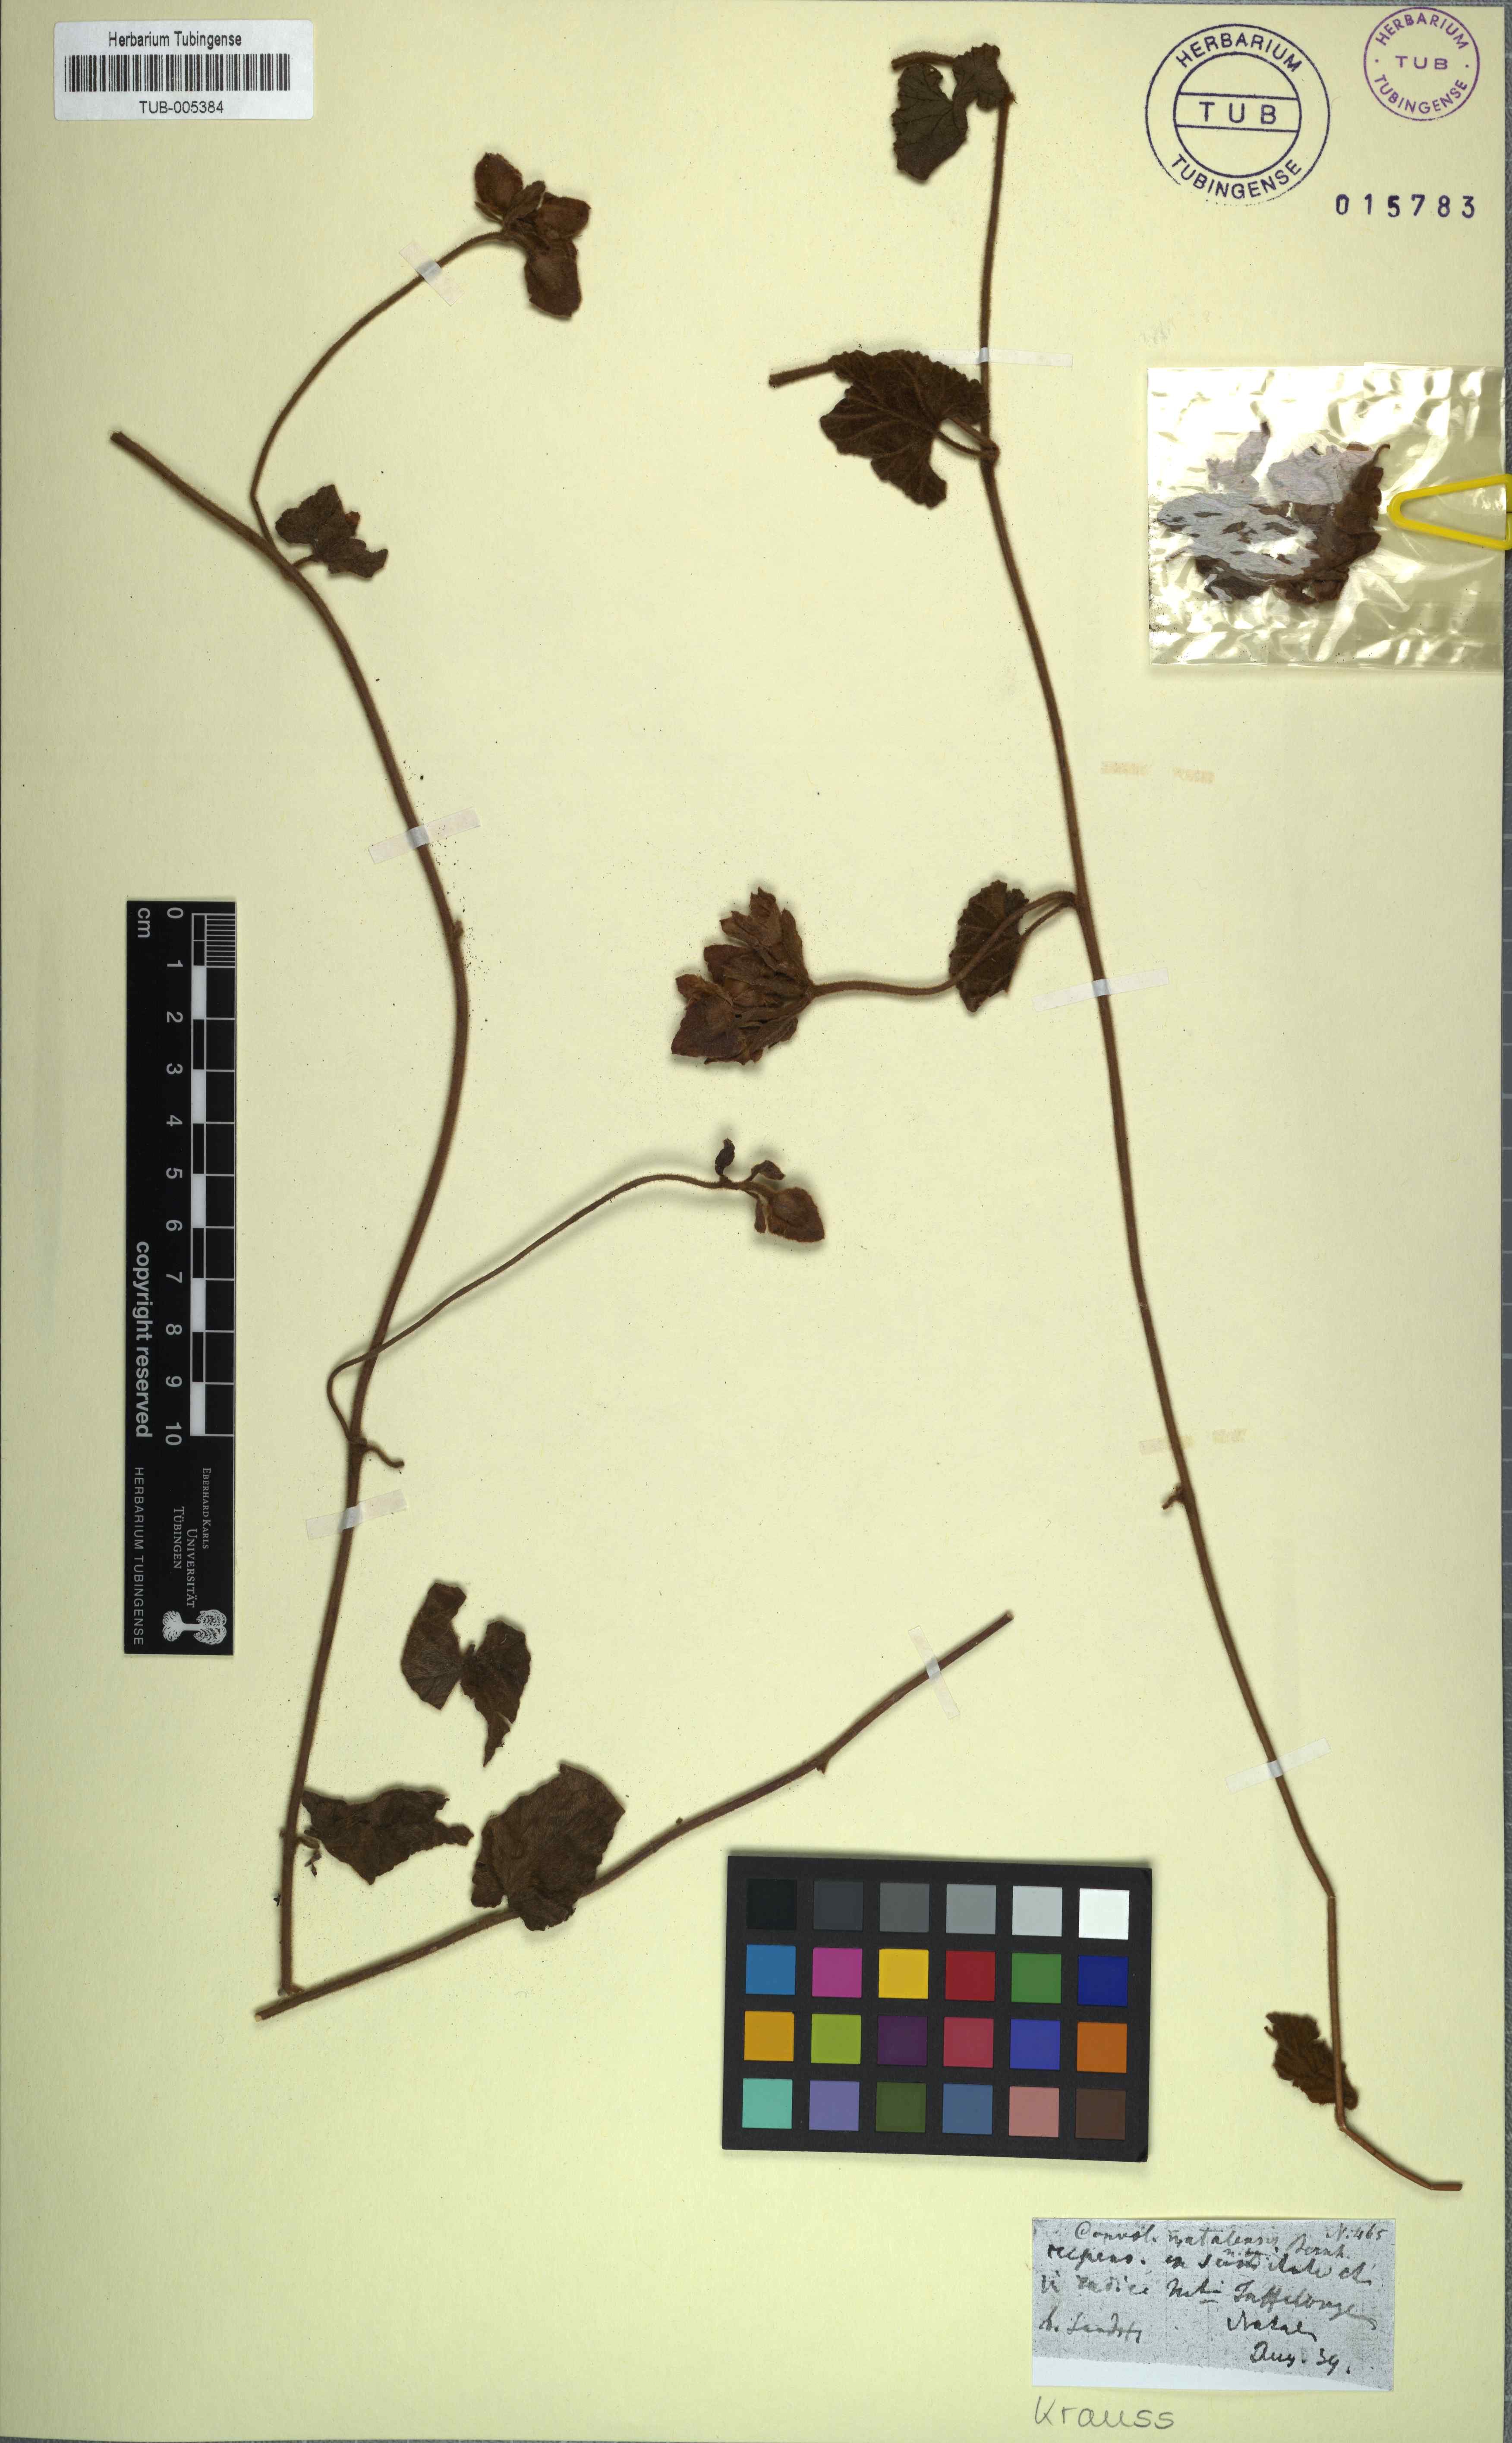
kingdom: Plantae
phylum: Tracheophyta
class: Magnoliopsida
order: Solanales
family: Convolvulaceae
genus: Convolvulus
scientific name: Convolvulus natalensis
